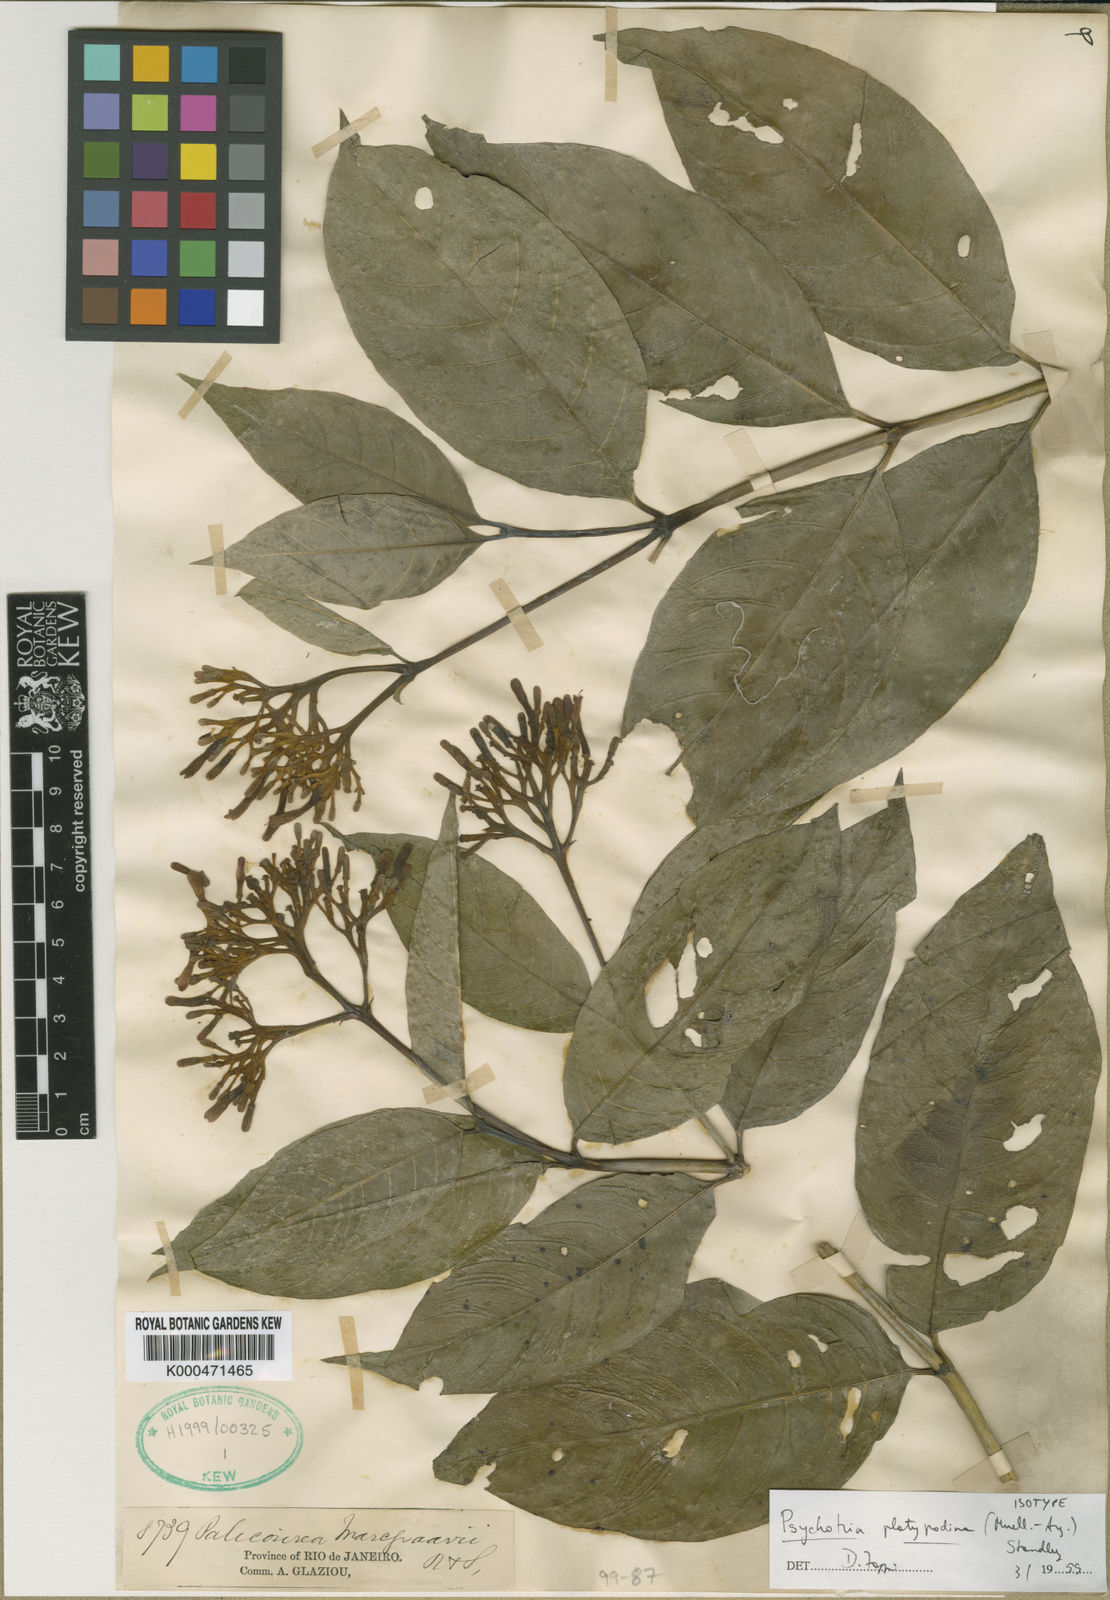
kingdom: Plantae
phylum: Tracheophyta
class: Magnoliopsida
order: Gentianales
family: Rubiaceae
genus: Palicourea
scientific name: Palicourea crocea
